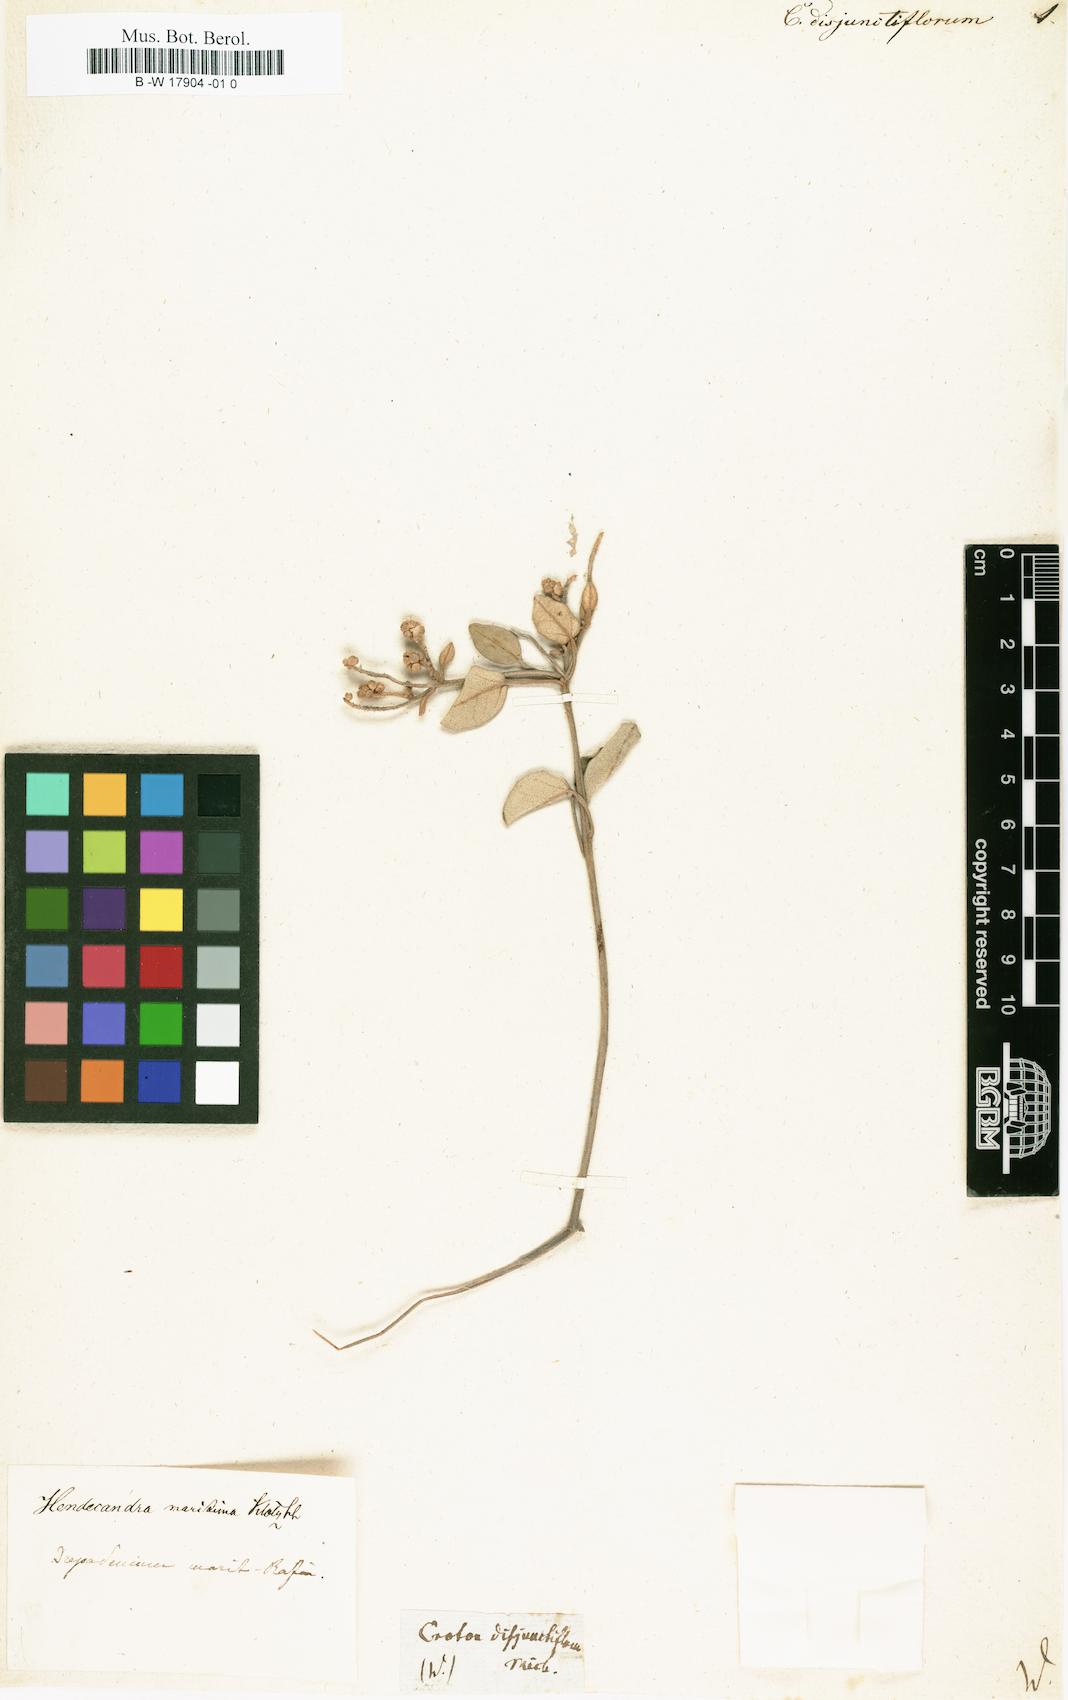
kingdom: Plantae
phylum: Tracheophyta
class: Magnoliopsida
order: Malpighiales
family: Euphorbiaceae
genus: Croton
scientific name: Croton punctatus
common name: Beach-tea
